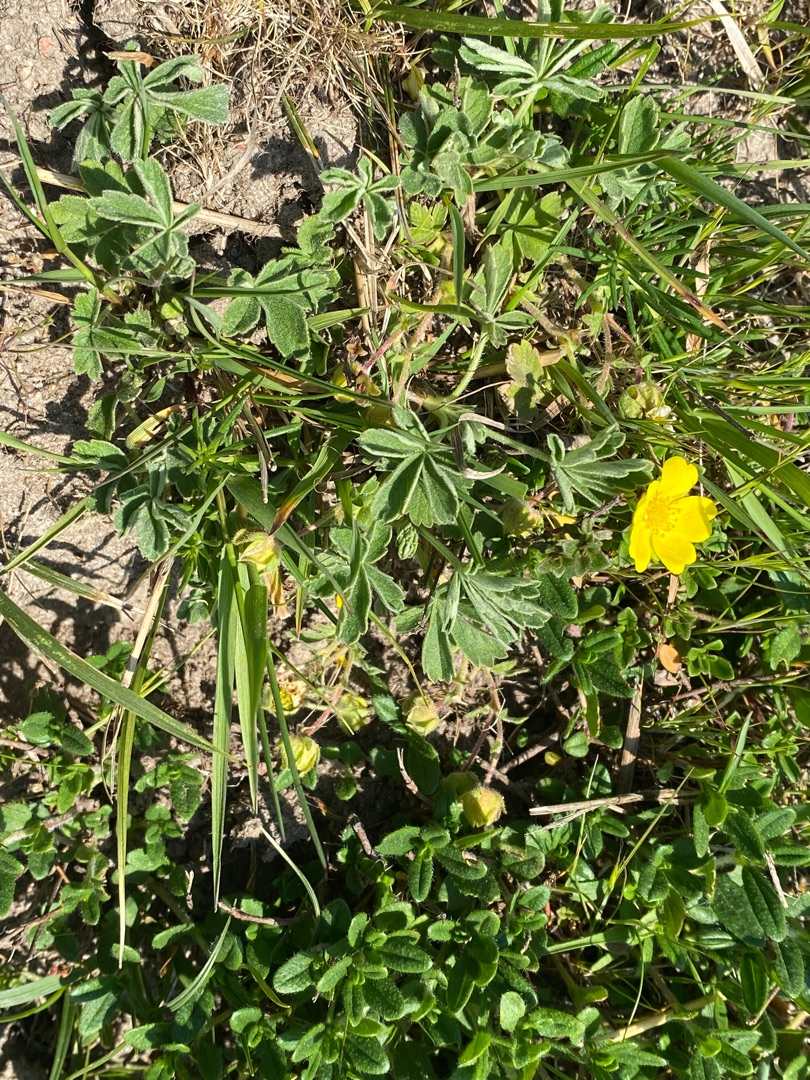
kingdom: Plantae
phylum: Tracheophyta
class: Magnoliopsida
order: Rosales
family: Rosaceae
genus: Potentilla
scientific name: Potentilla subarenaria
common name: Grå vår-potentil
